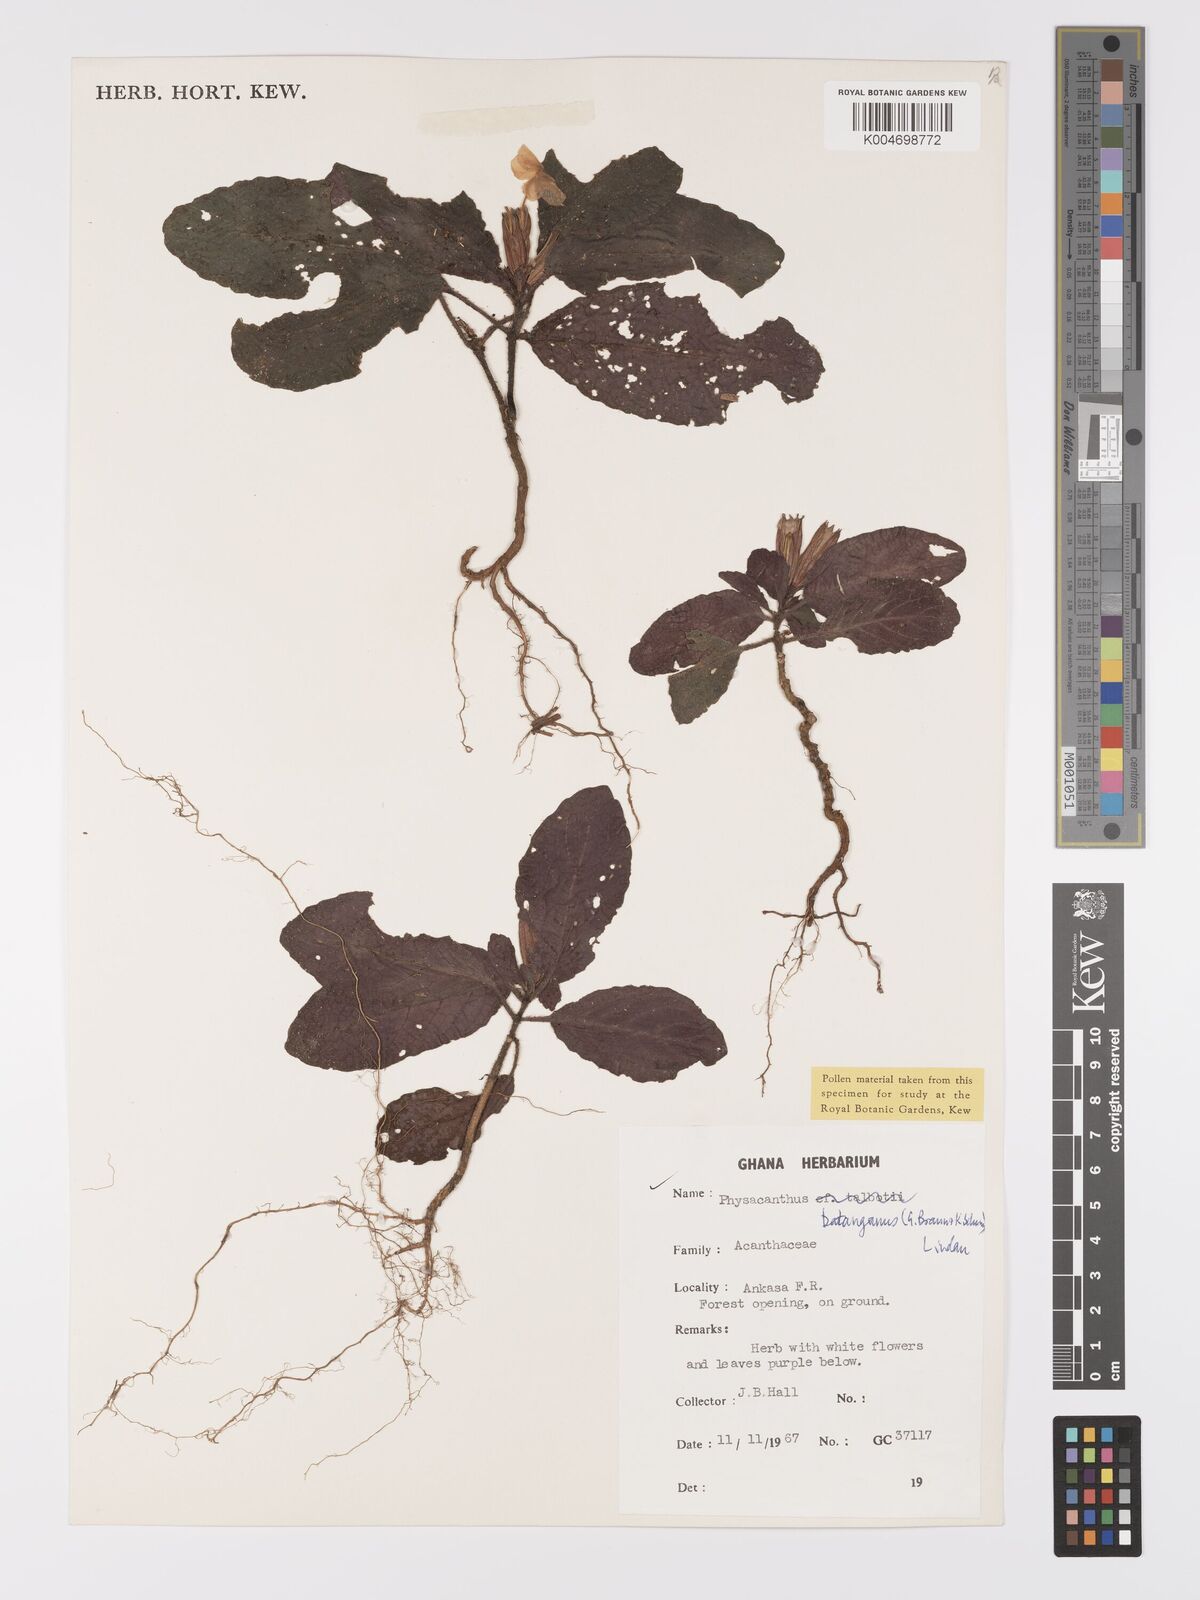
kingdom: Plantae
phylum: Tracheophyta
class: Magnoliopsida
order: Lamiales
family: Acanthaceae
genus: Physacanthus
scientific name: Physacanthus batanganus
